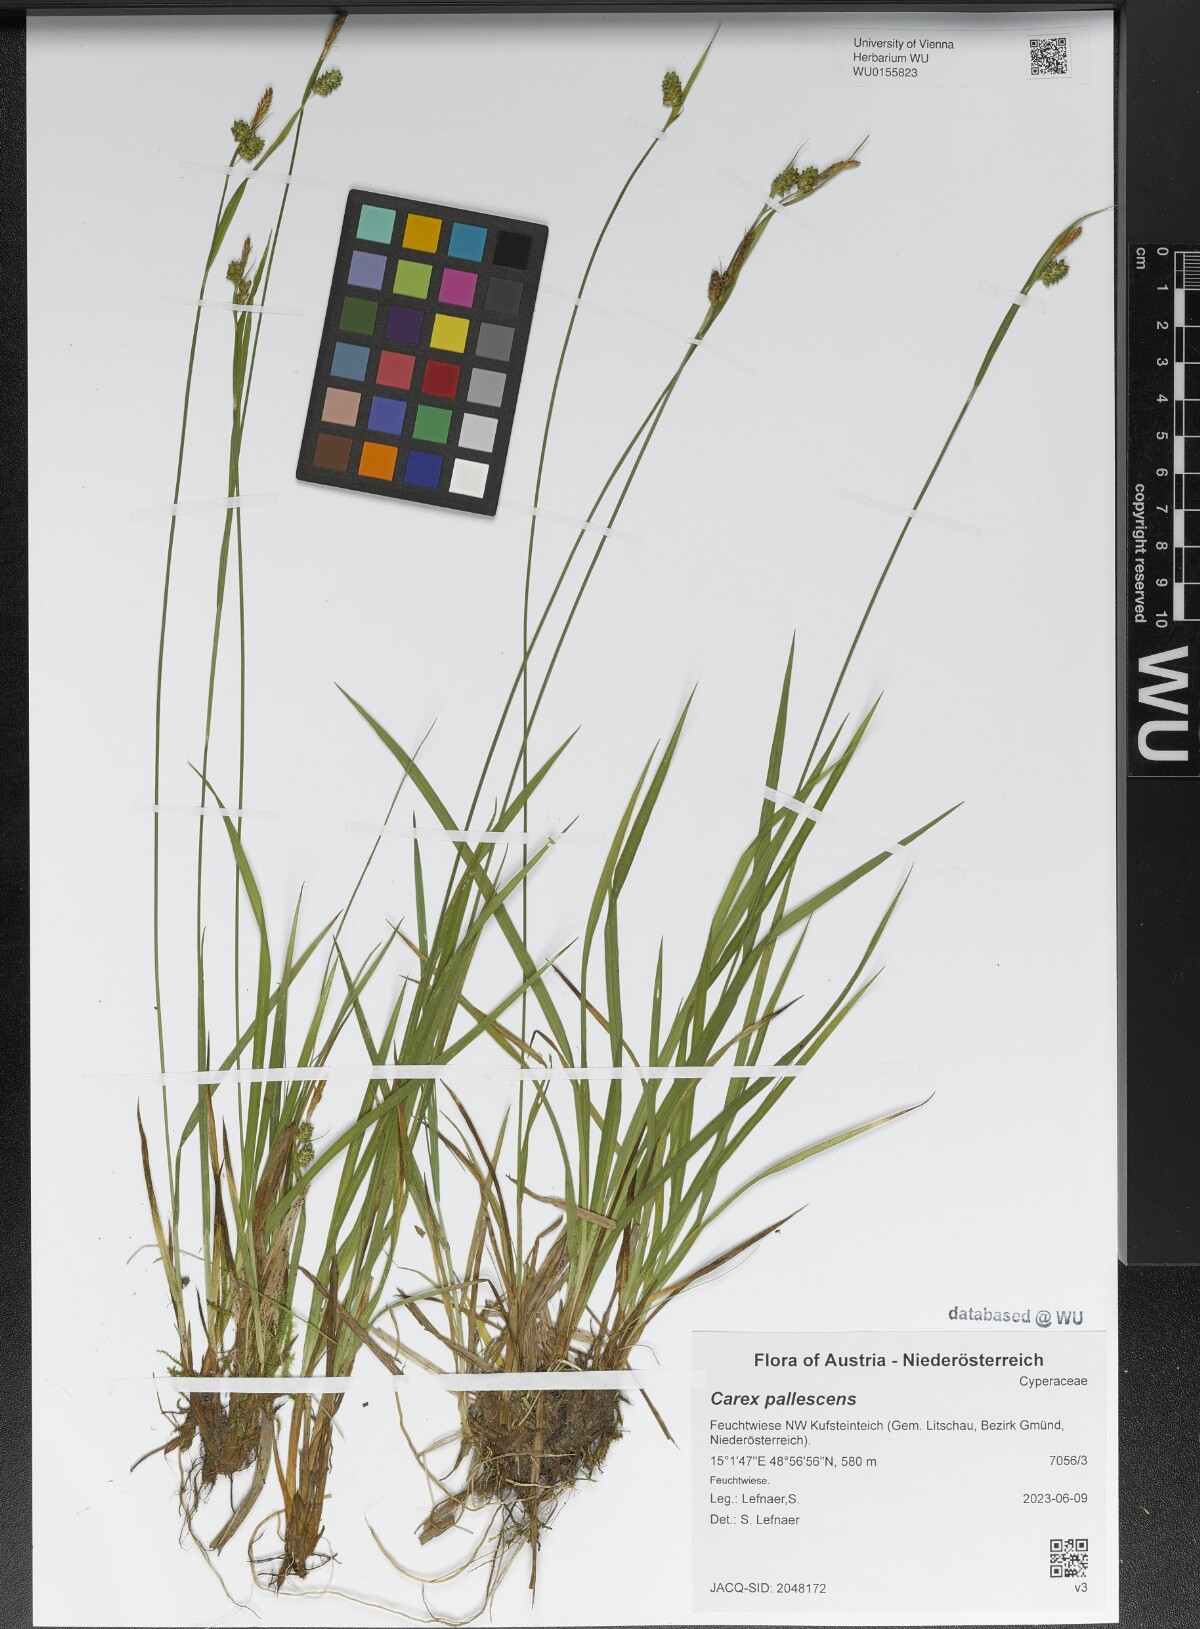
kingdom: Plantae
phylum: Tracheophyta
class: Liliopsida
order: Poales
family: Cyperaceae
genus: Carex
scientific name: Carex pallescens
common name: Pale sedge
